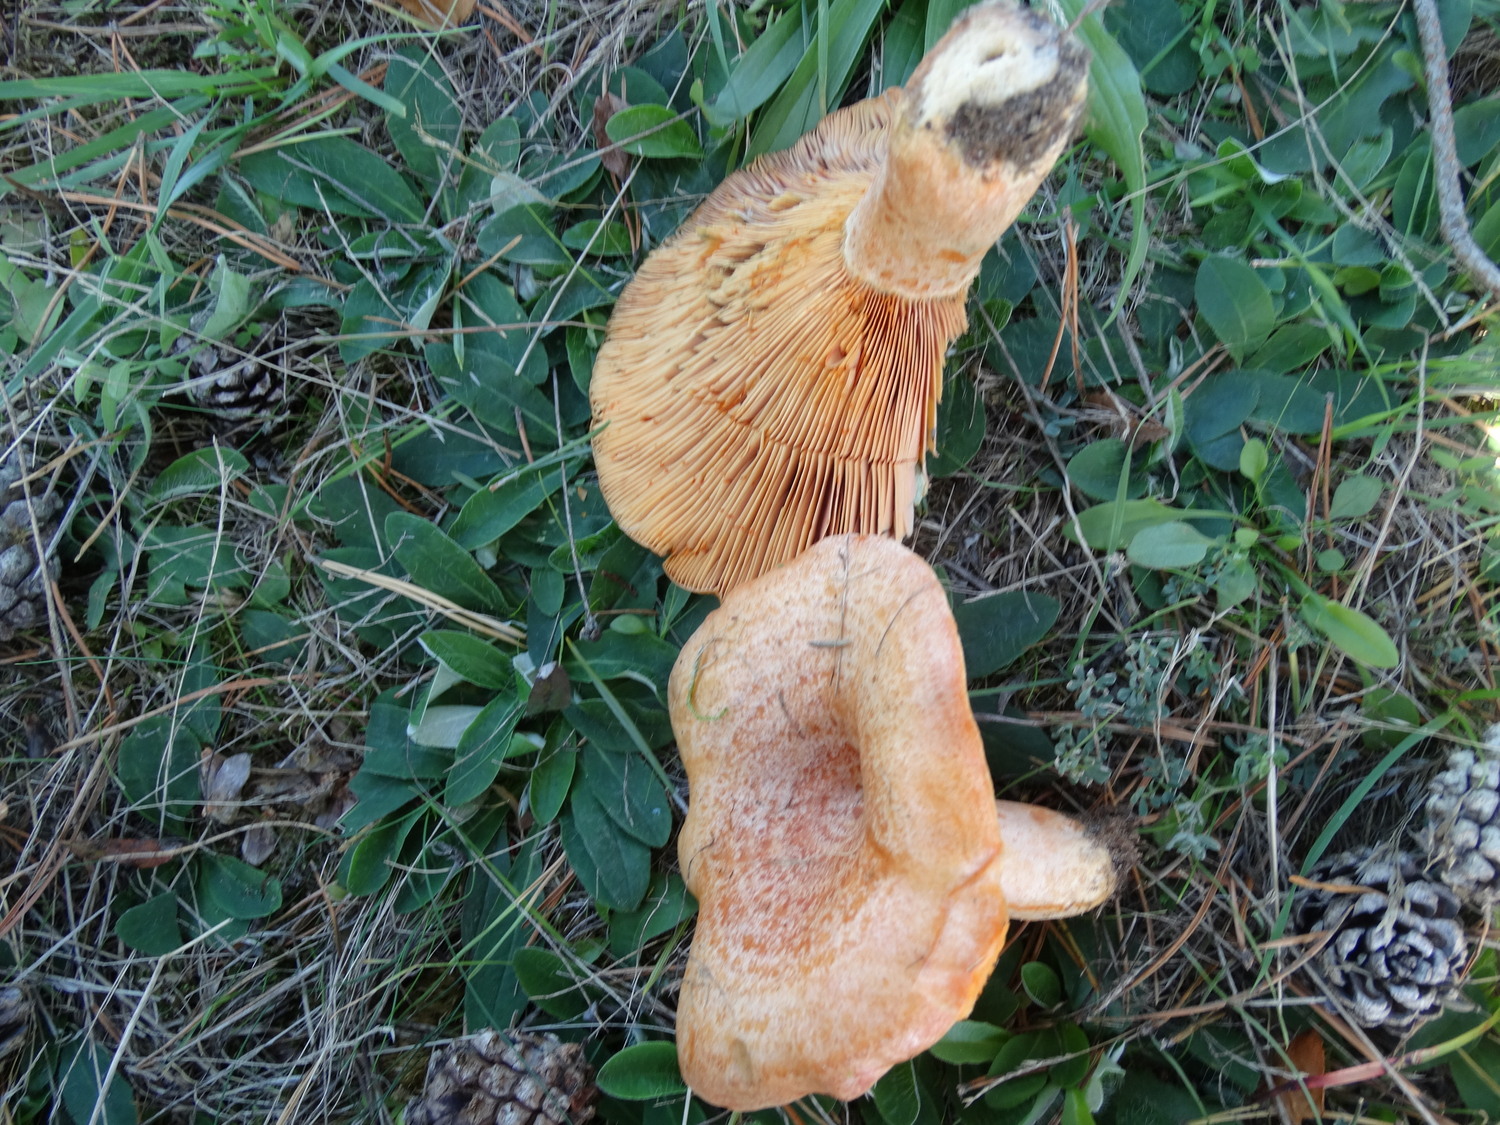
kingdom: Fungi
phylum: Basidiomycota
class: Agaricomycetes
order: Russulales
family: Russulaceae
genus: Lactarius
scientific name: Lactarius deliciosus
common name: velsmagende mælkehat
